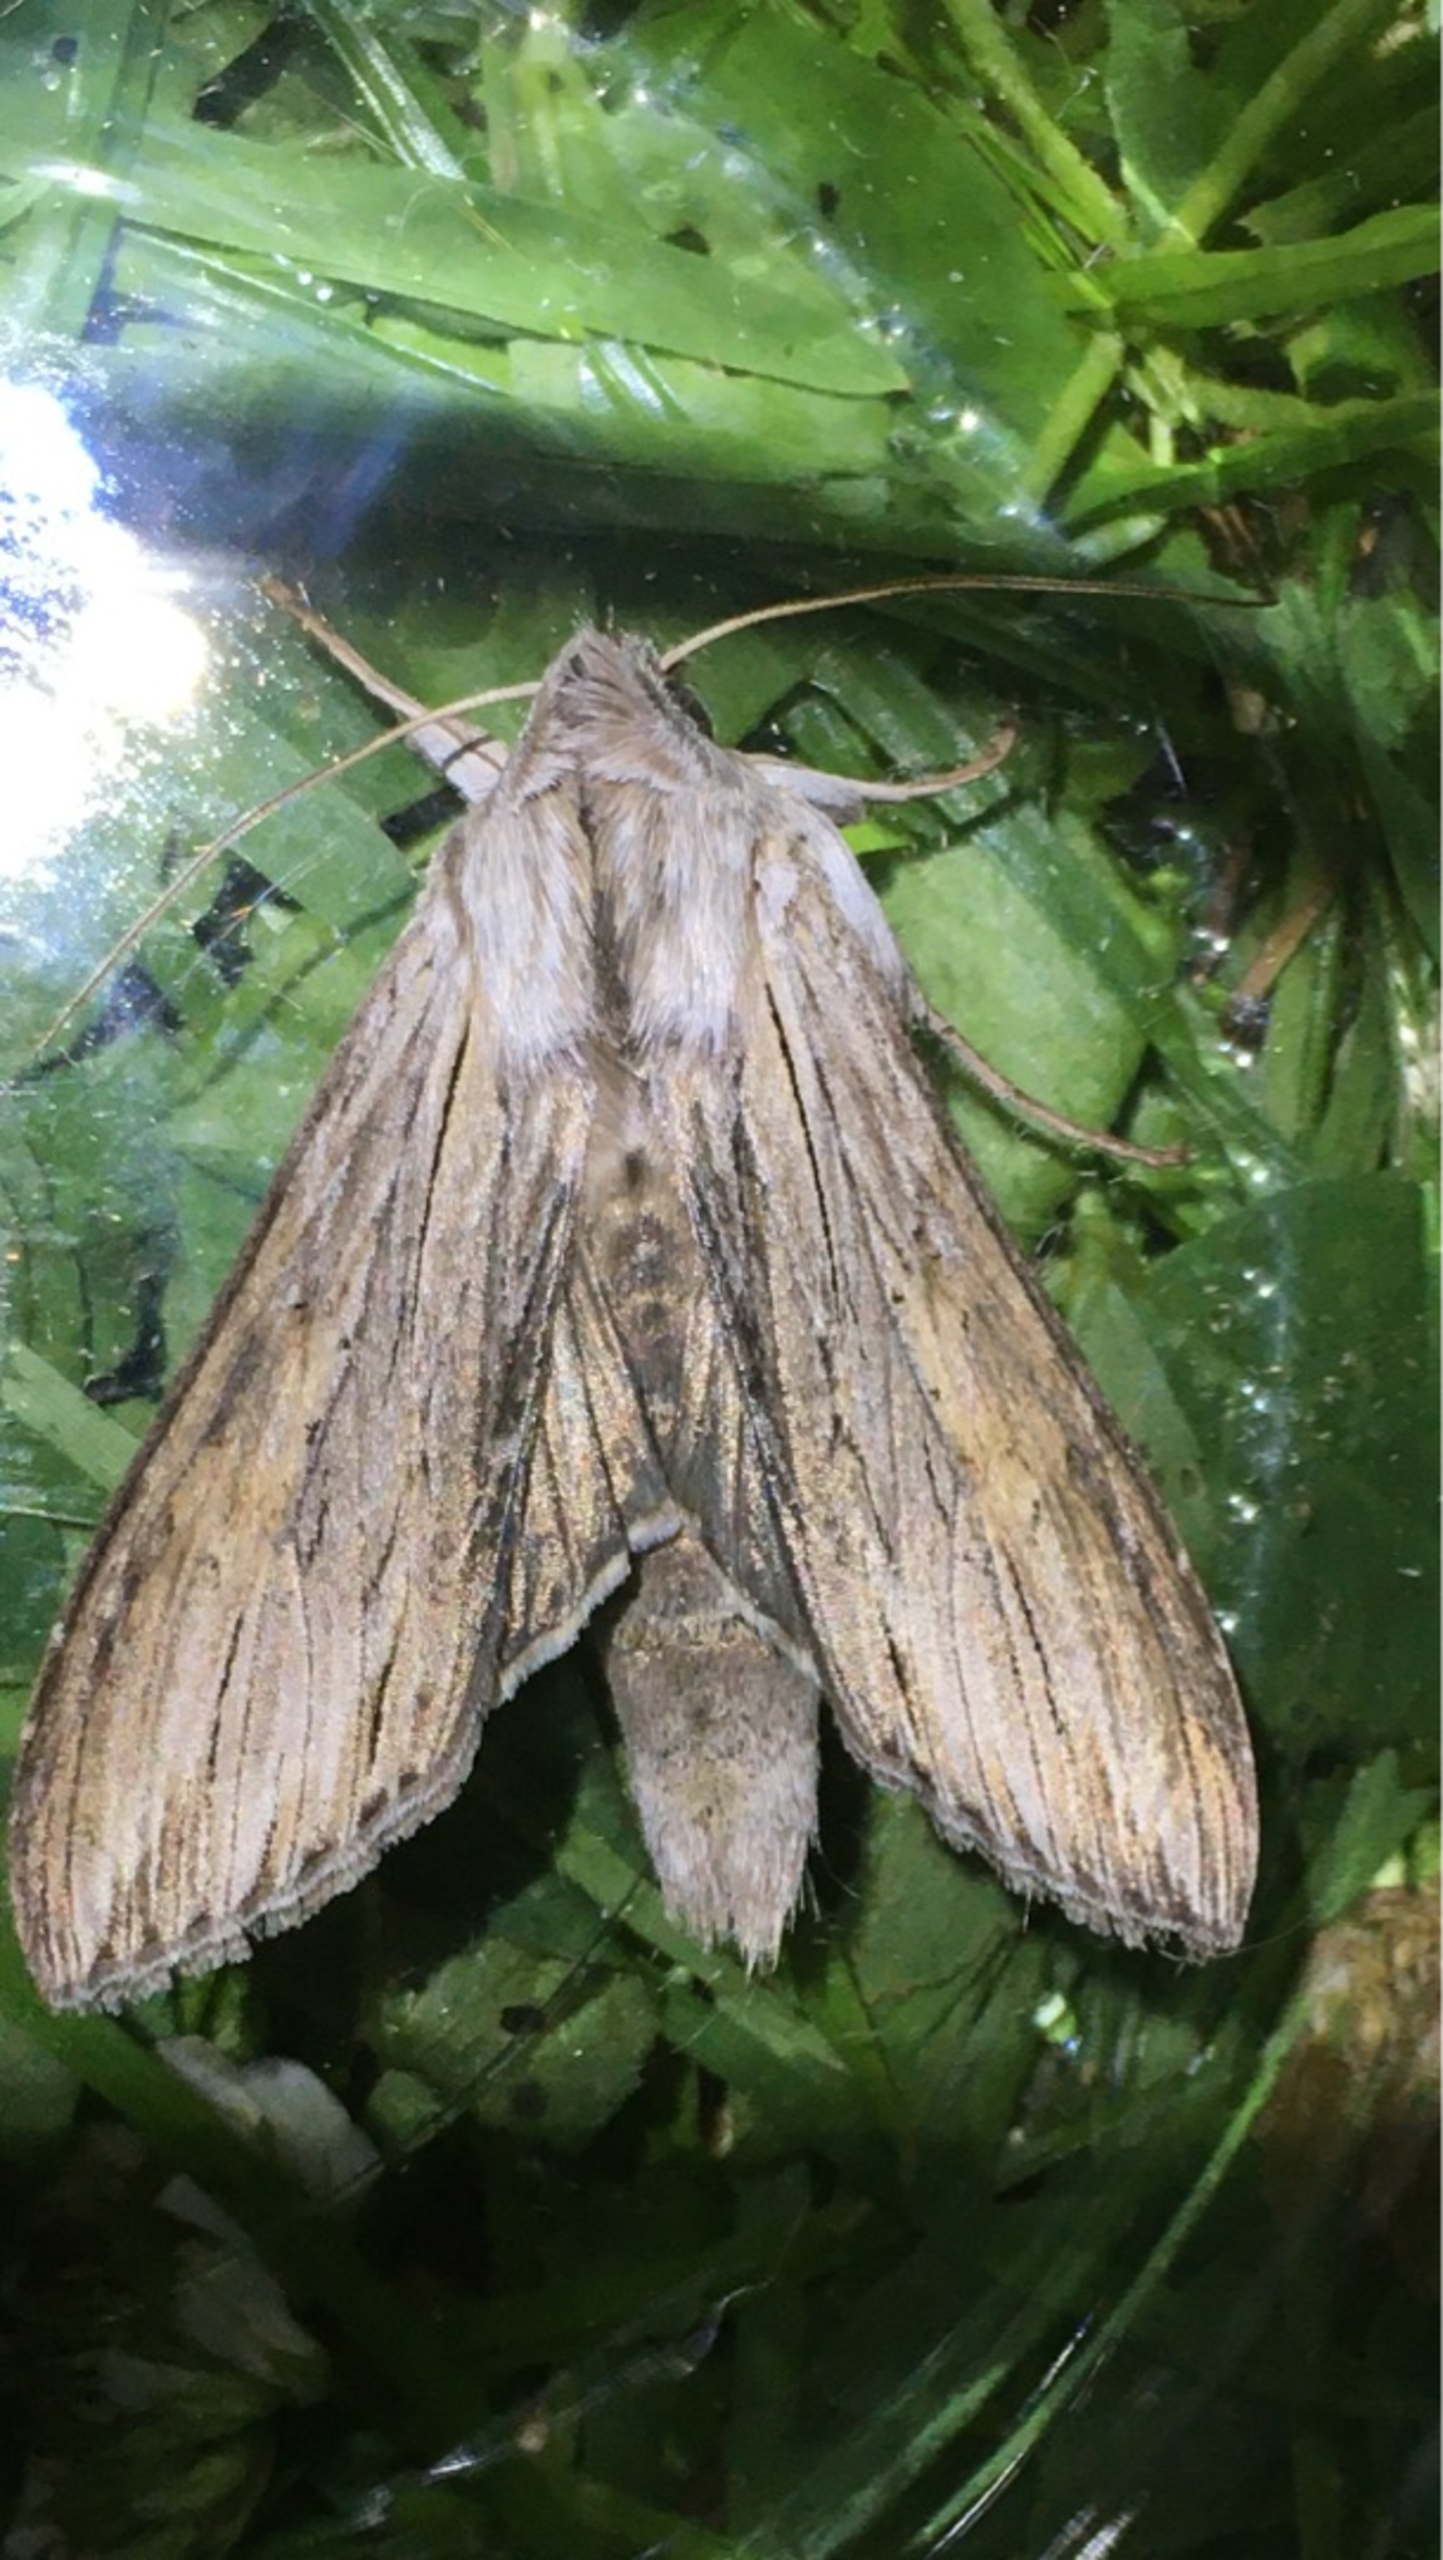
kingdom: Animalia
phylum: Arthropoda
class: Insecta
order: Lepidoptera
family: Noctuidae
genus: Cucullia
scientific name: Cucullia umbratica
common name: Grå hætteugle
